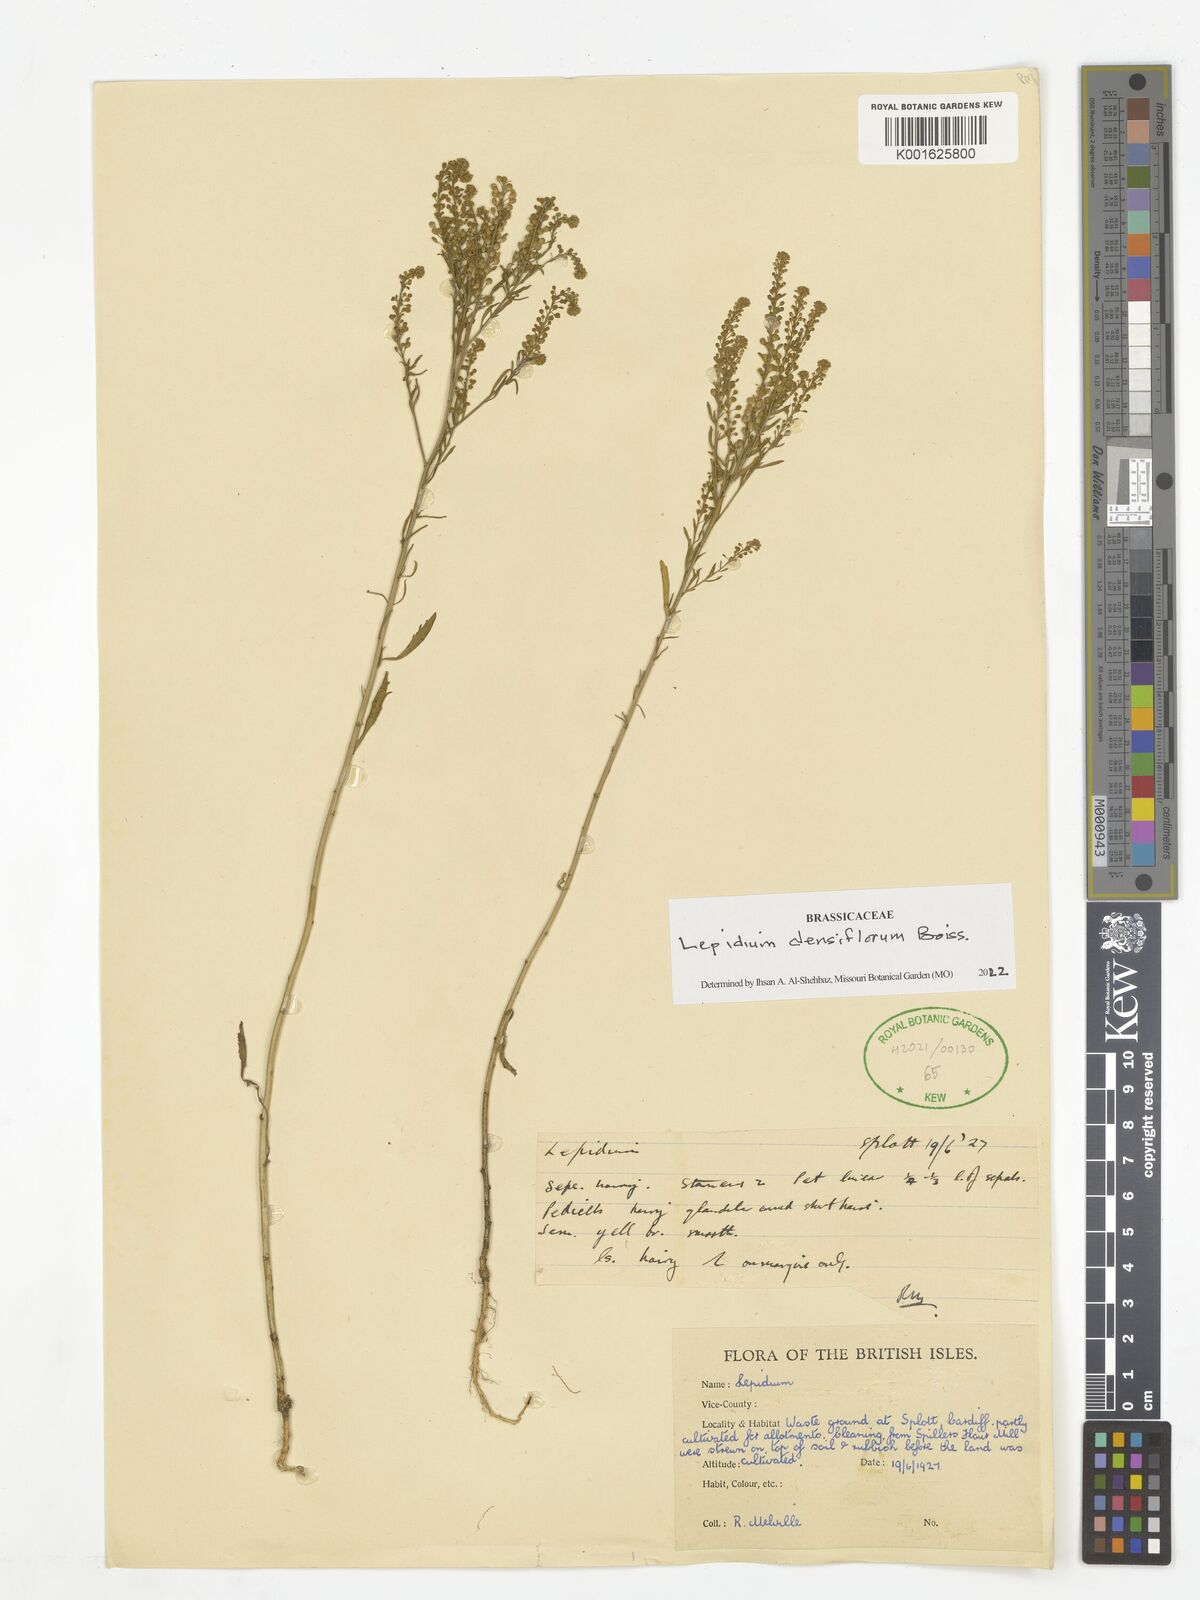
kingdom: Plantae
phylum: Tracheophyta
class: Magnoliopsida
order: Brassicales
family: Brassicaceae
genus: Lepidium
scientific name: Lepidium densiflorum
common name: Miner's pepperwort
